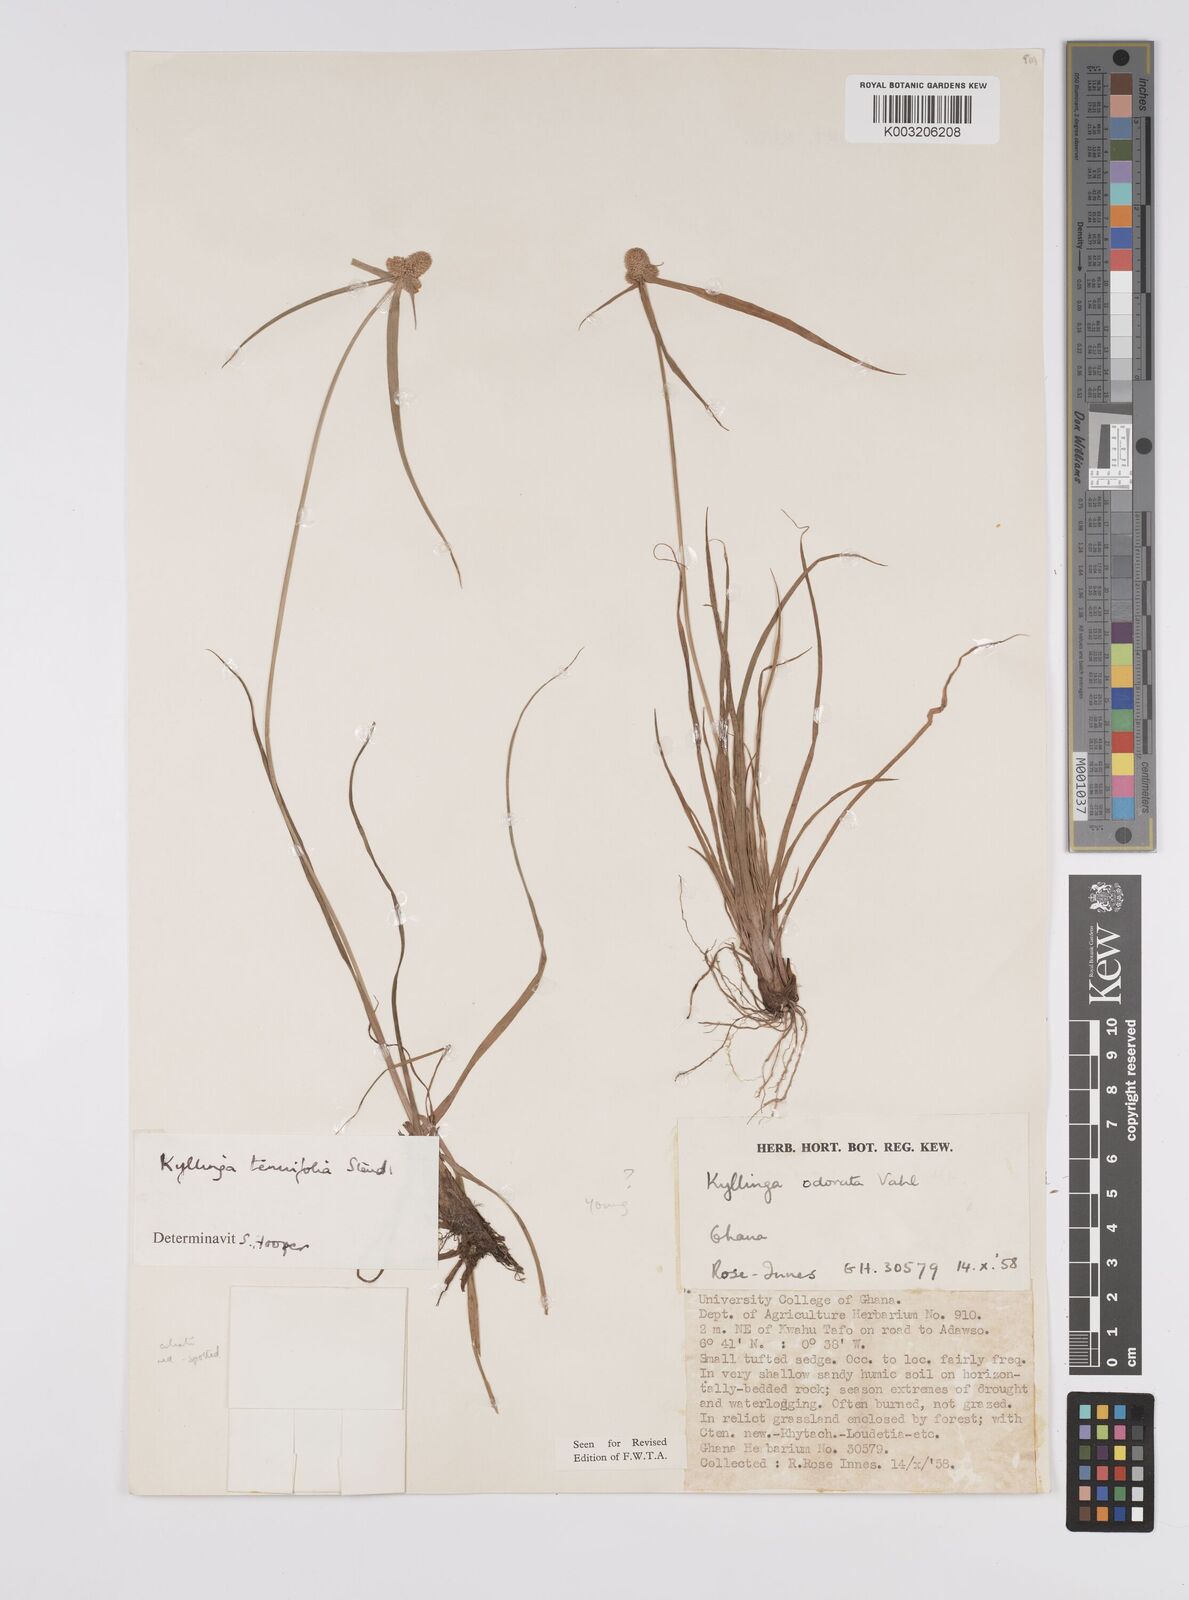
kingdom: Plantae
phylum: Tracheophyta
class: Liliopsida
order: Poales
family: Cyperaceae
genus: Cyperus
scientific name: Cyperus
